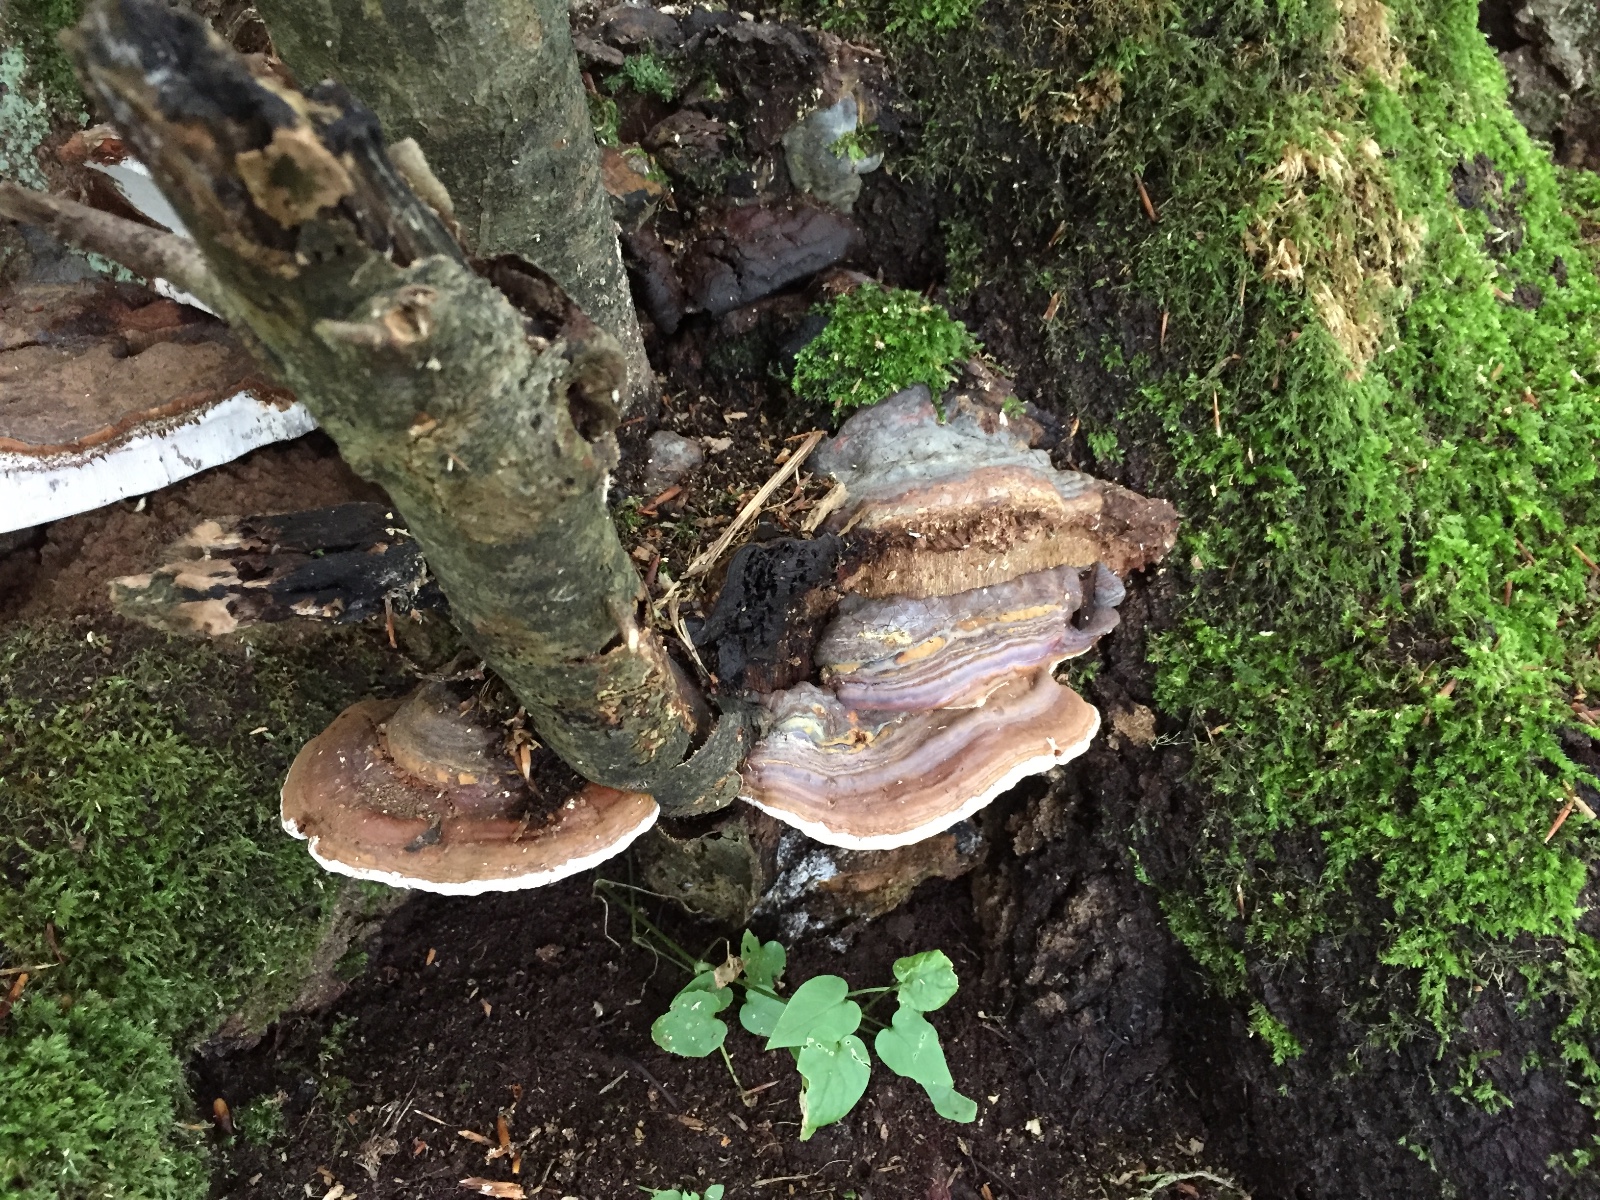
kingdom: Fungi
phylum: Basidiomycota
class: Agaricomycetes
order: Polyporales
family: Polyporaceae
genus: Ganoderma
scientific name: Ganoderma pfeifferi
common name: kobberrød lakporesvamp
